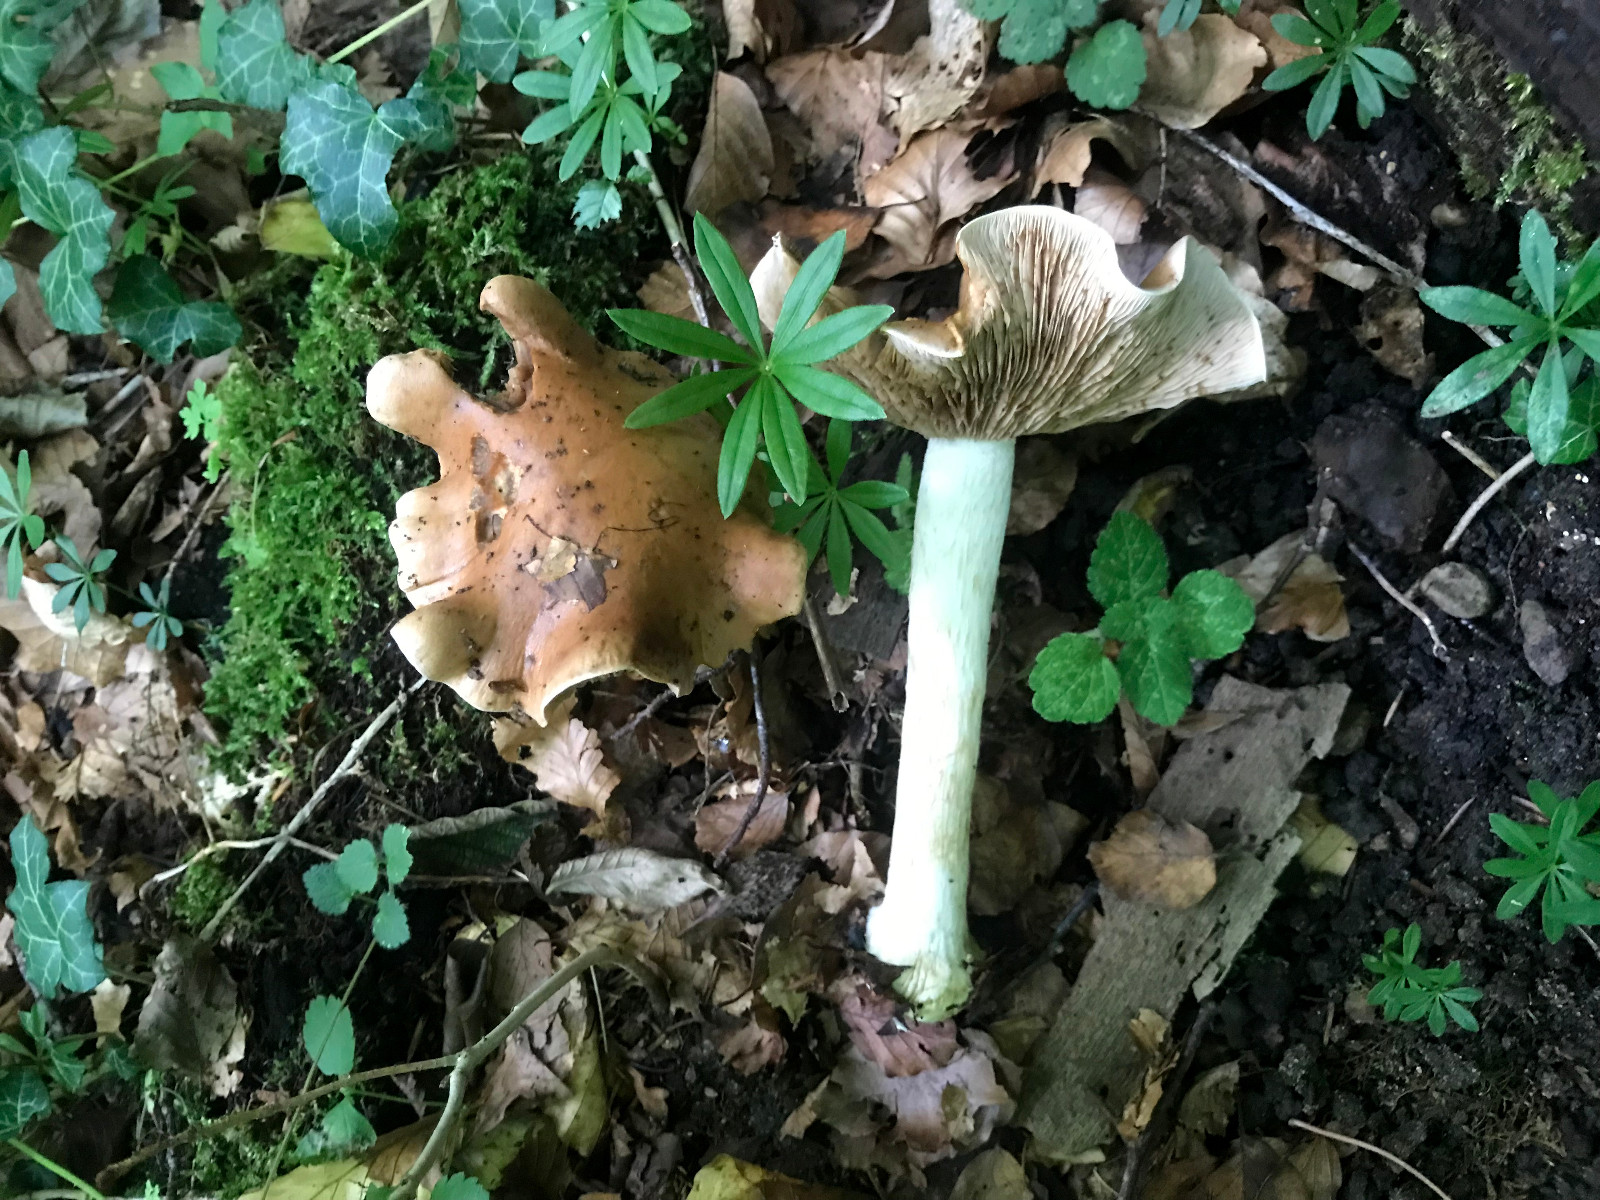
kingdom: Fungi
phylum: Basidiomycota
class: Agaricomycetes
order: Agaricales
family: Hymenogastraceae
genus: Hebeloma
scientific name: Hebeloma sinapizans
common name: ræddike-tåreblad
